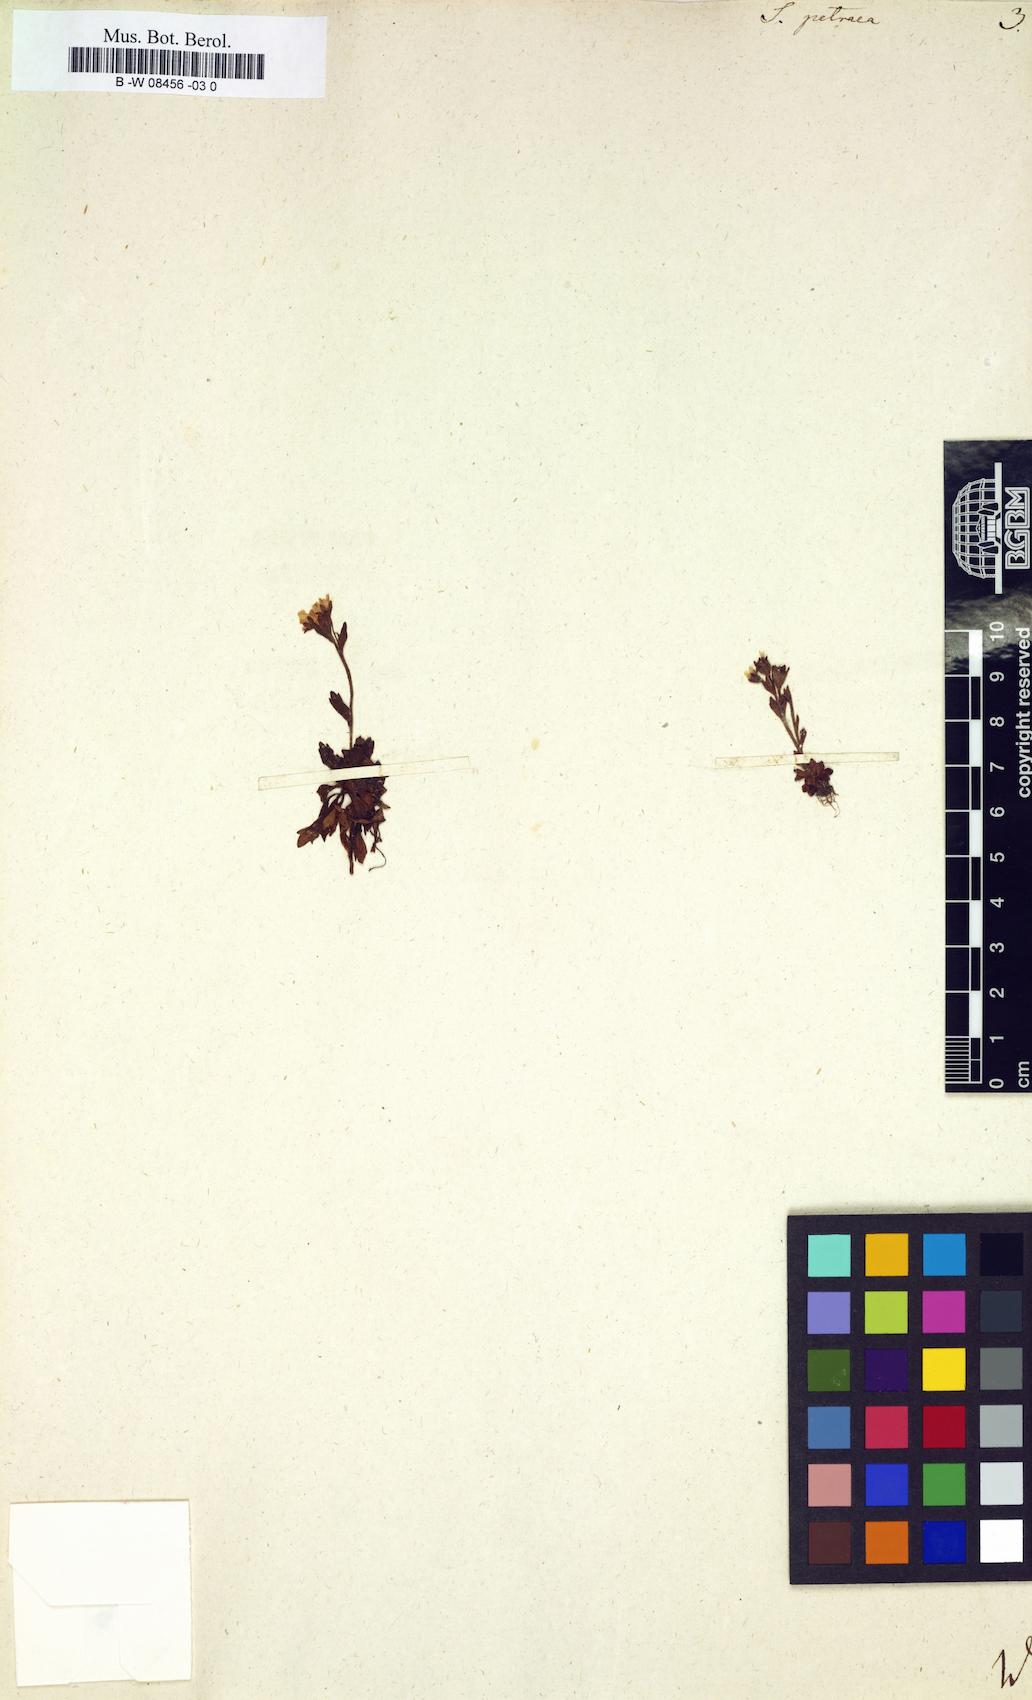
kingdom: Plantae
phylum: Tracheophyta
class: Magnoliopsida
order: Saxifragales
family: Saxifragaceae
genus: Saxifraga
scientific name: Saxifraga petraea
